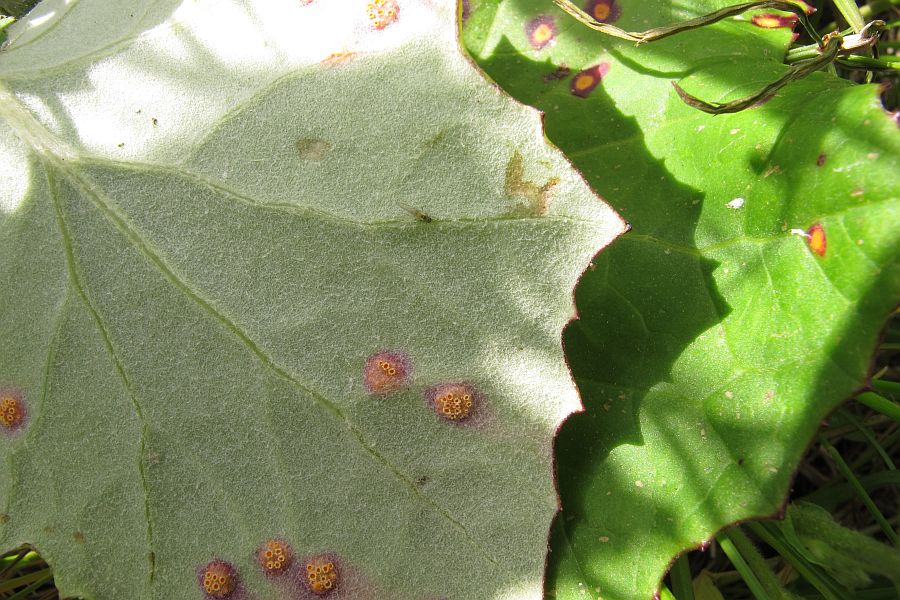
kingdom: Fungi
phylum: Basidiomycota
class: Pucciniomycetes
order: Pucciniales
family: Pucciniaceae
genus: Puccinia
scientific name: Puccinia poarum
